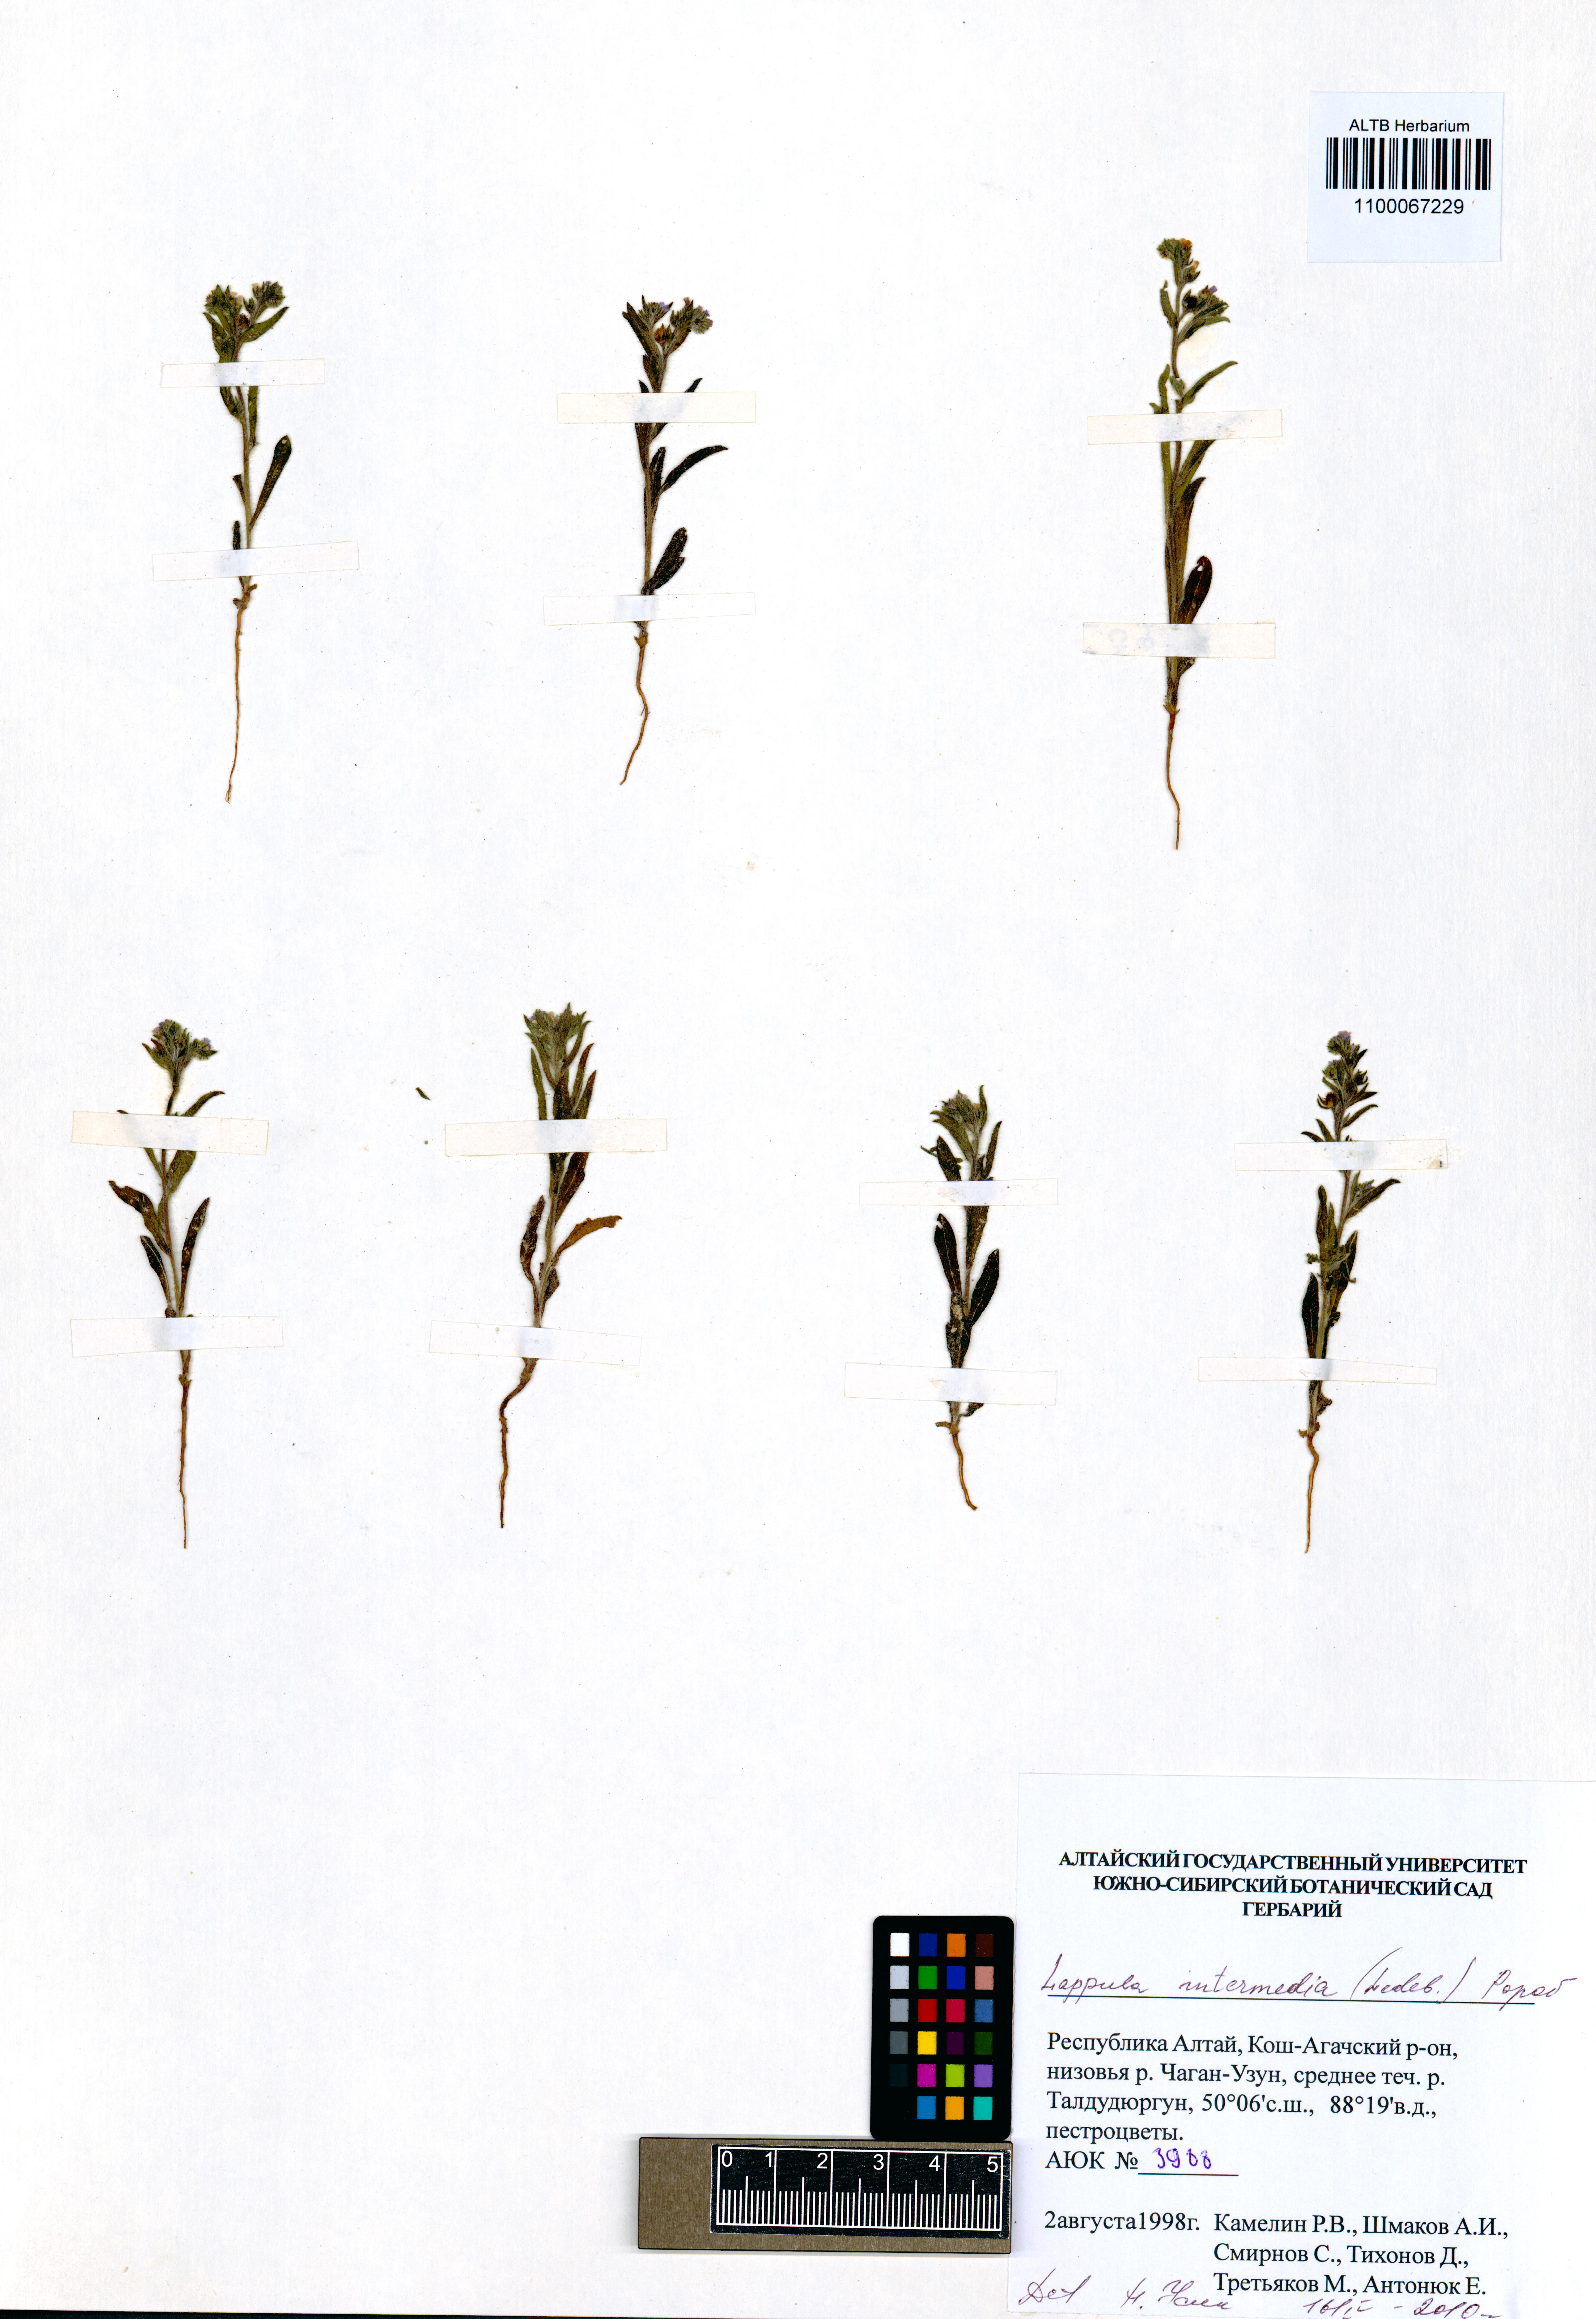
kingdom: Plantae
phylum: Tracheophyta
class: Magnoliopsida
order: Boraginales
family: Boraginaceae
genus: Lappula
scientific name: Lappula intermedia
